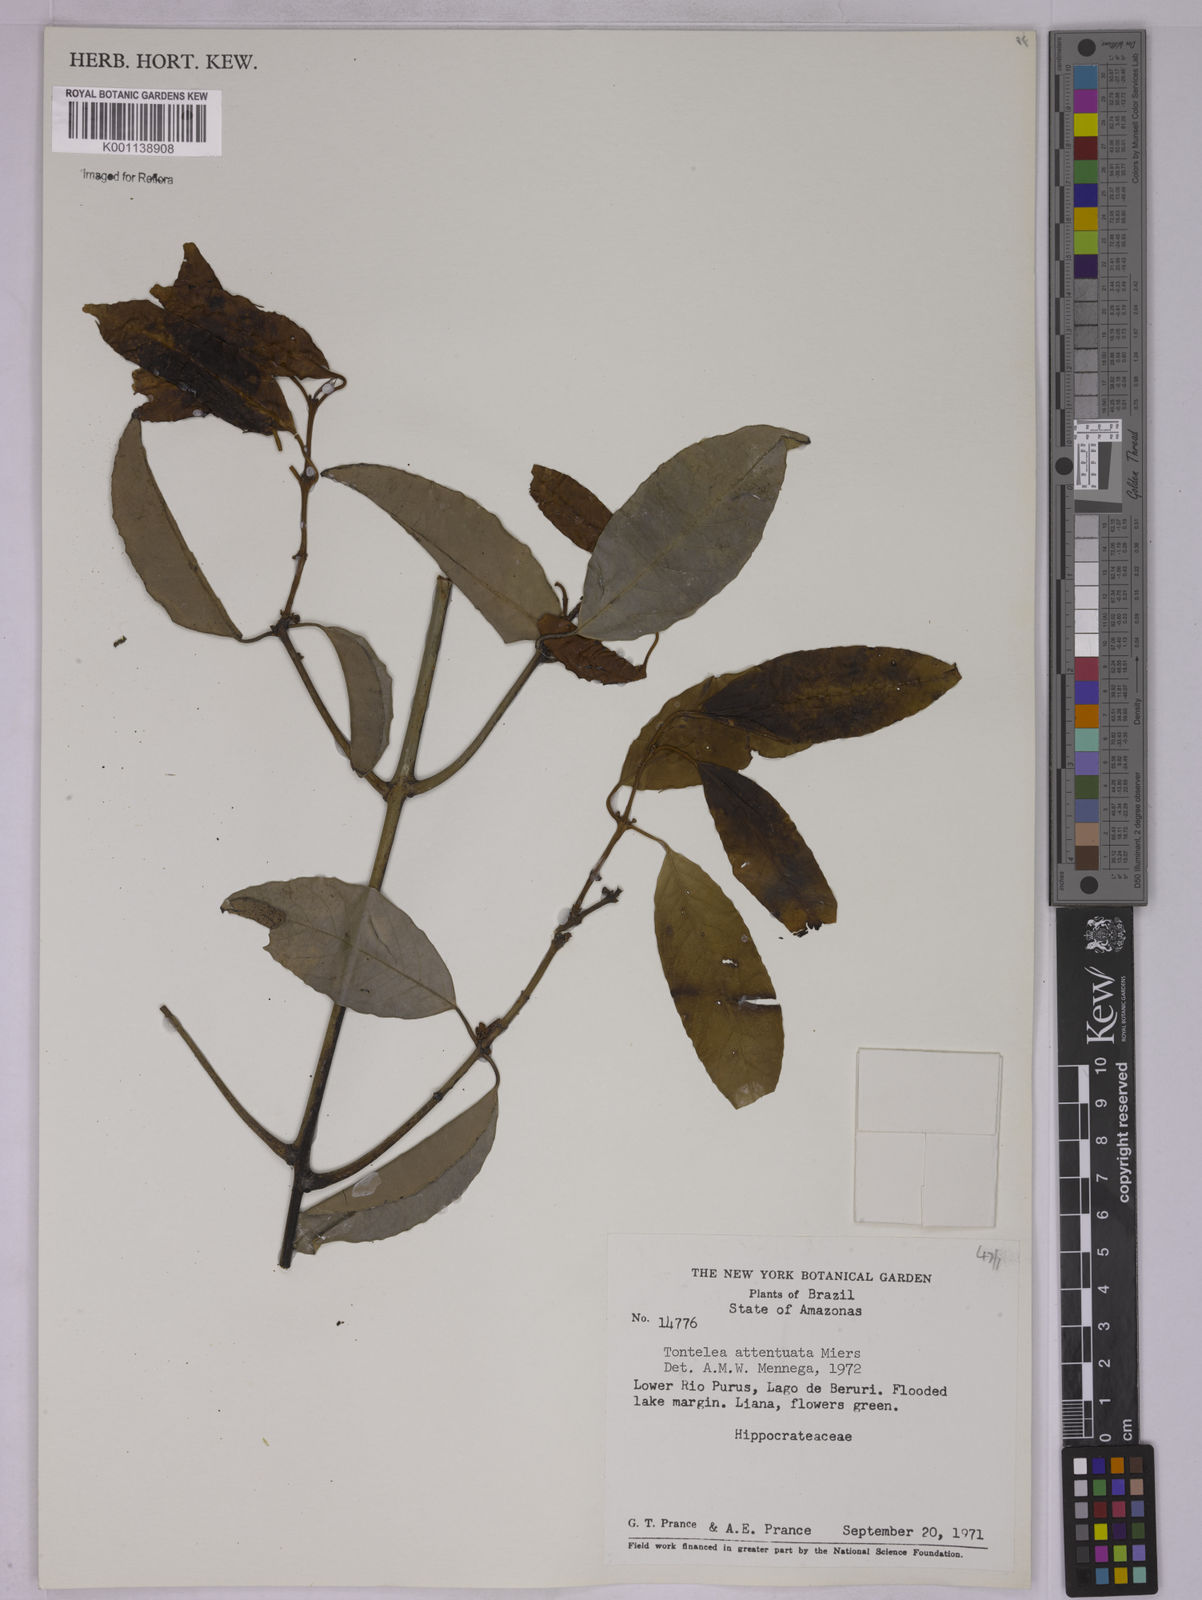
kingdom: Plantae
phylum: Tracheophyta
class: Magnoliopsida
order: Celastrales
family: Celastraceae
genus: Tontelea
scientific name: Tontelea attenuata
